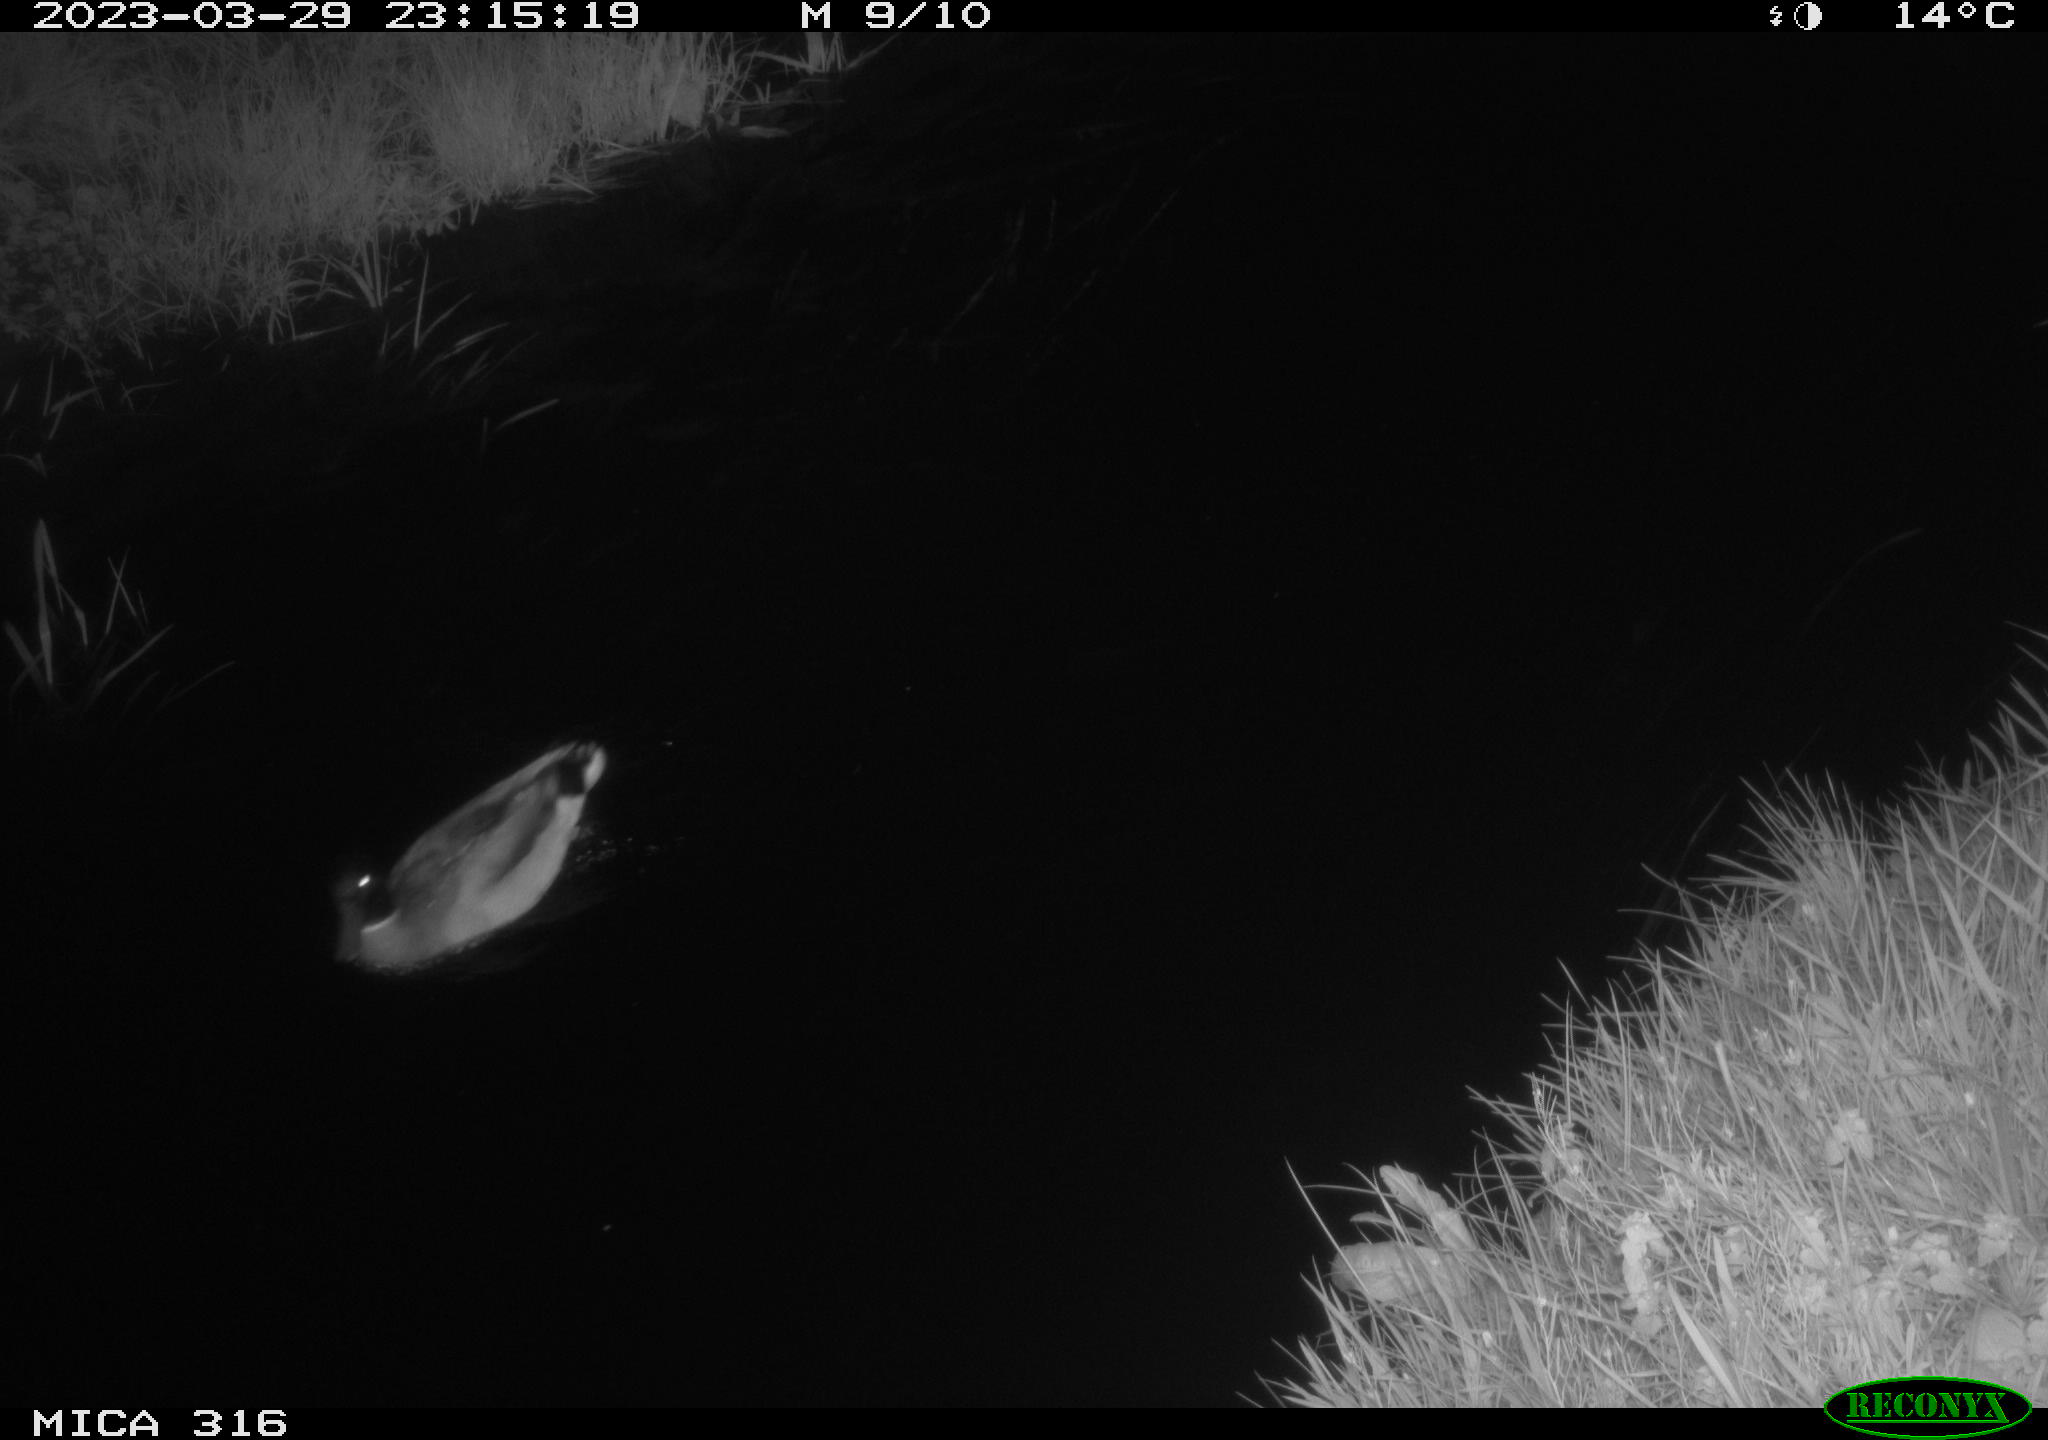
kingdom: Animalia
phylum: Chordata
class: Aves
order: Anseriformes
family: Anatidae
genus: Anas
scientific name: Anas
